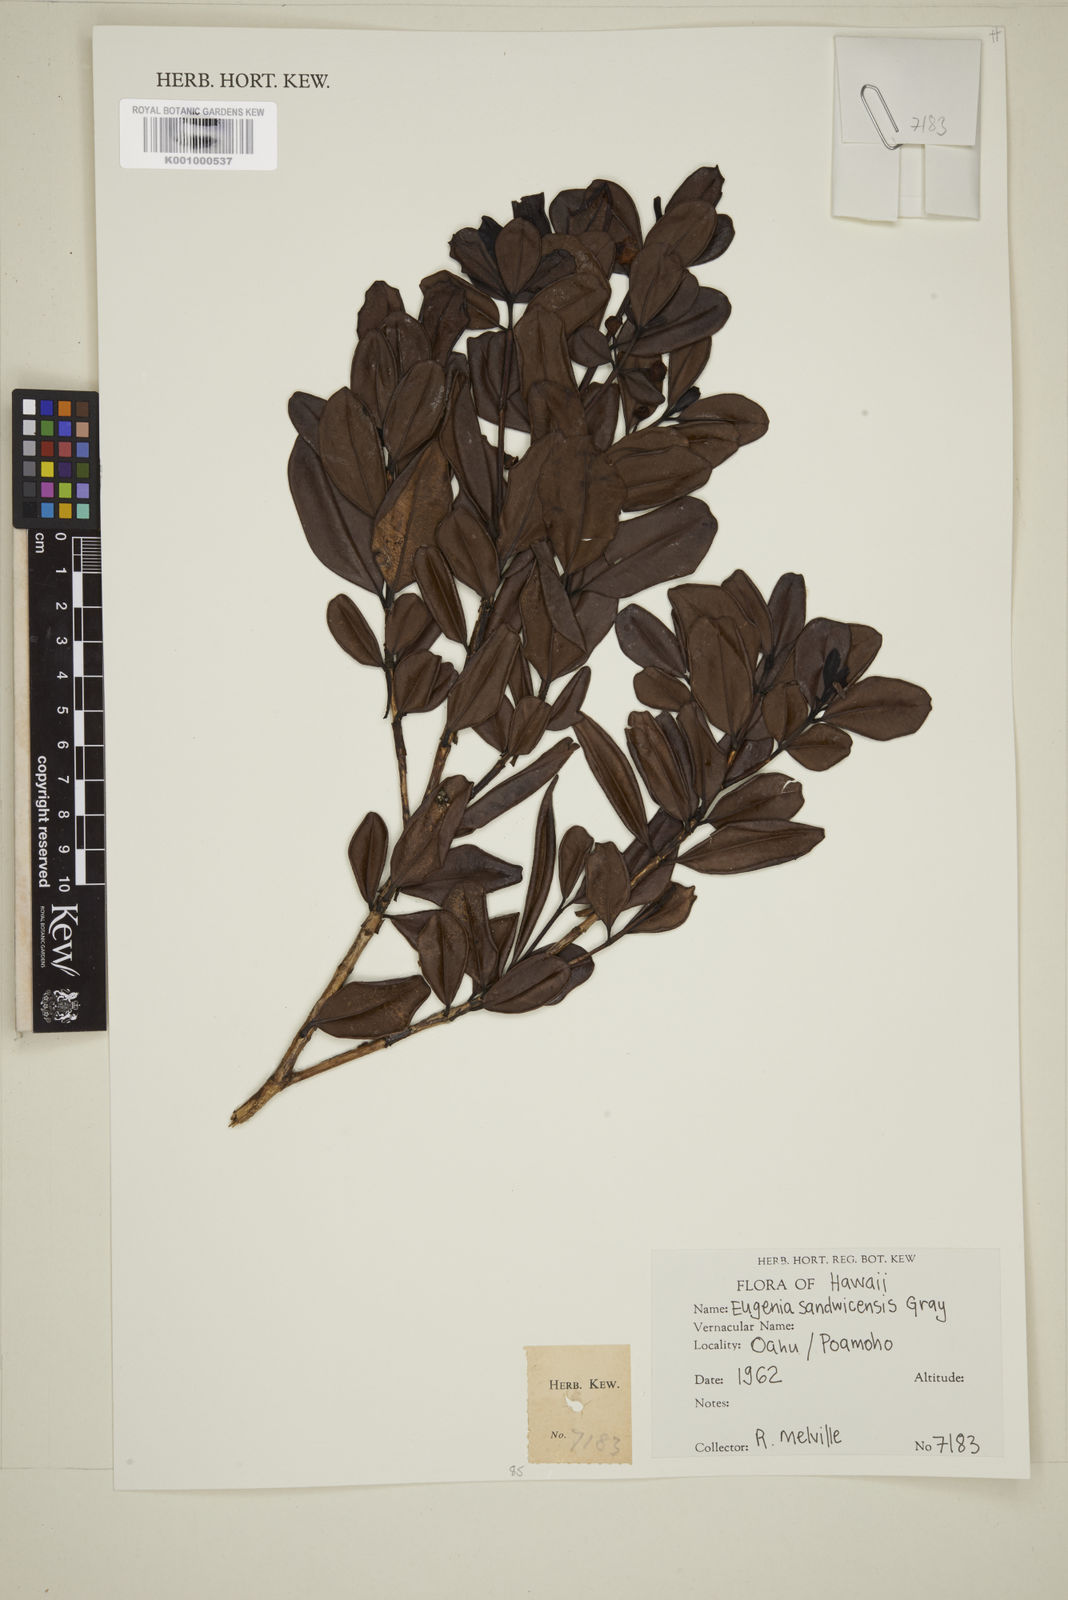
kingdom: Plantae
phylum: Tracheophyta
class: Magnoliopsida
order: Myrtales
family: Myrtaceae
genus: Syzygium
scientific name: Syzygium sandwicense
